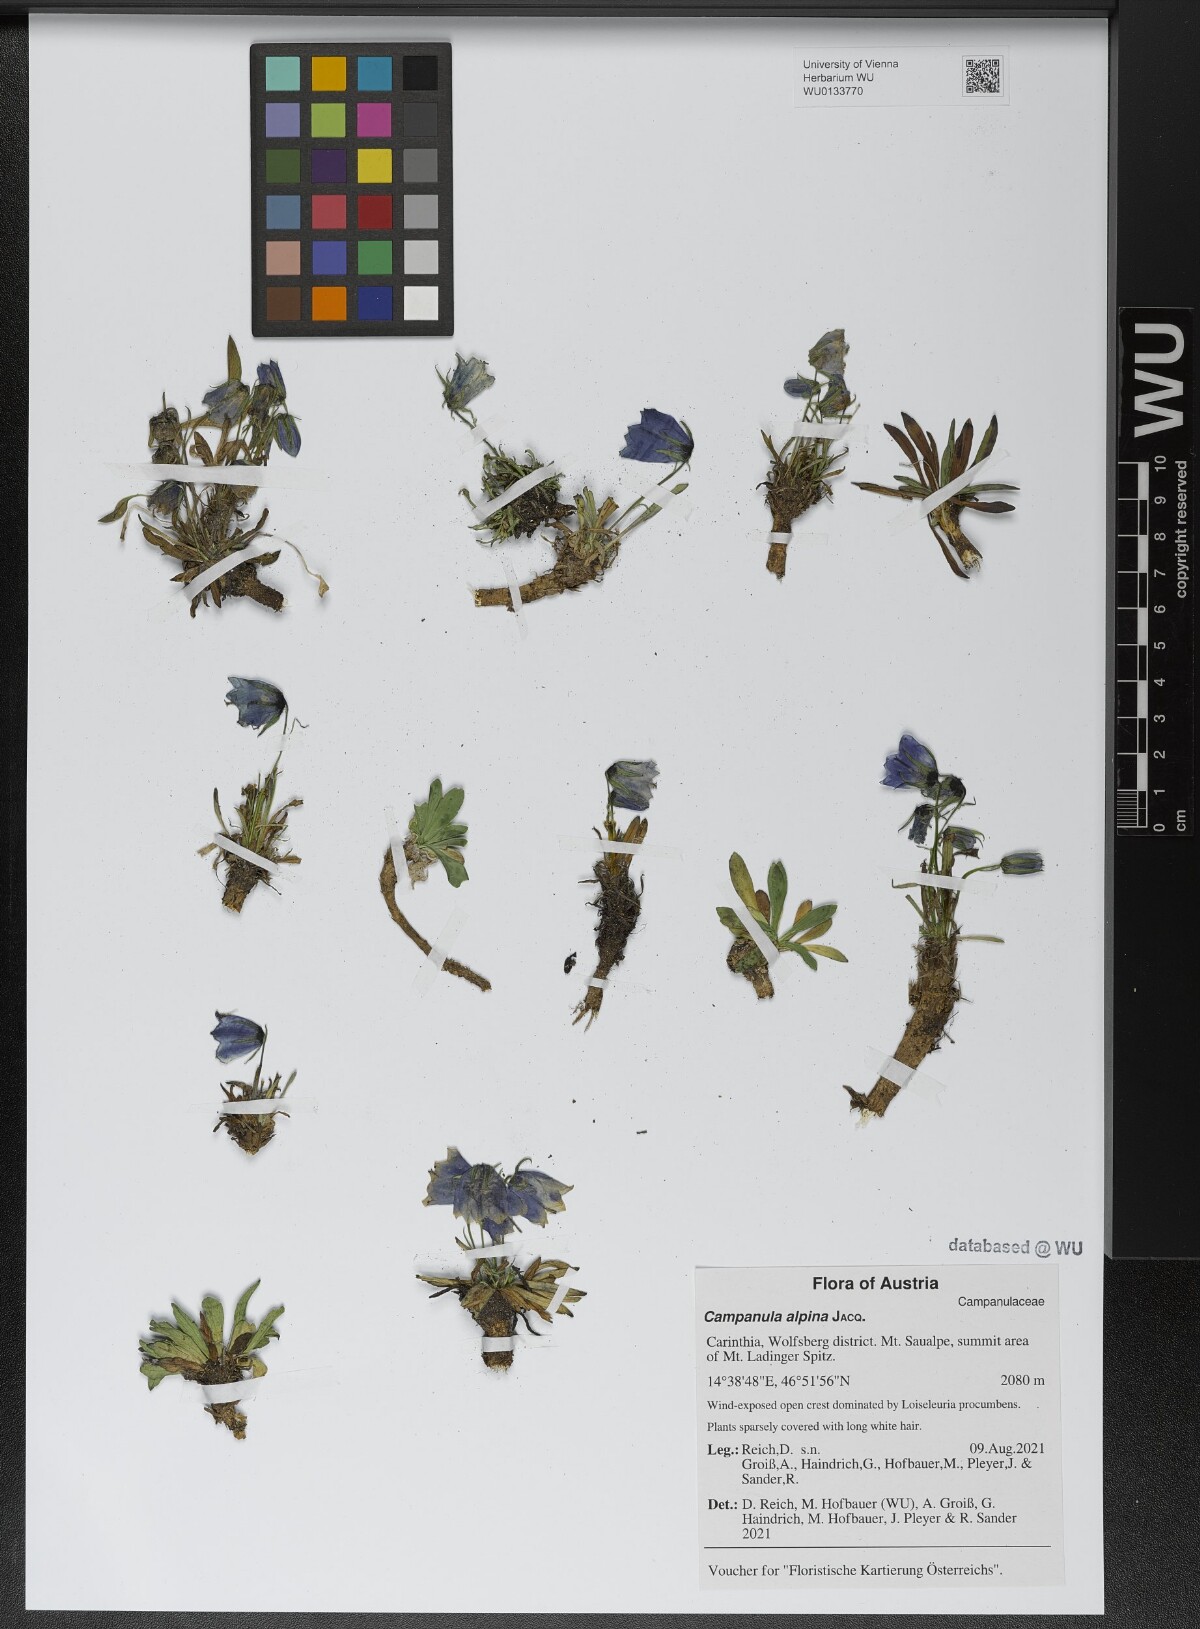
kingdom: Plantae
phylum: Tracheophyta
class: Magnoliopsida
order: Asterales
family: Campanulaceae
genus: Campanula
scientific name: Campanula alpina
